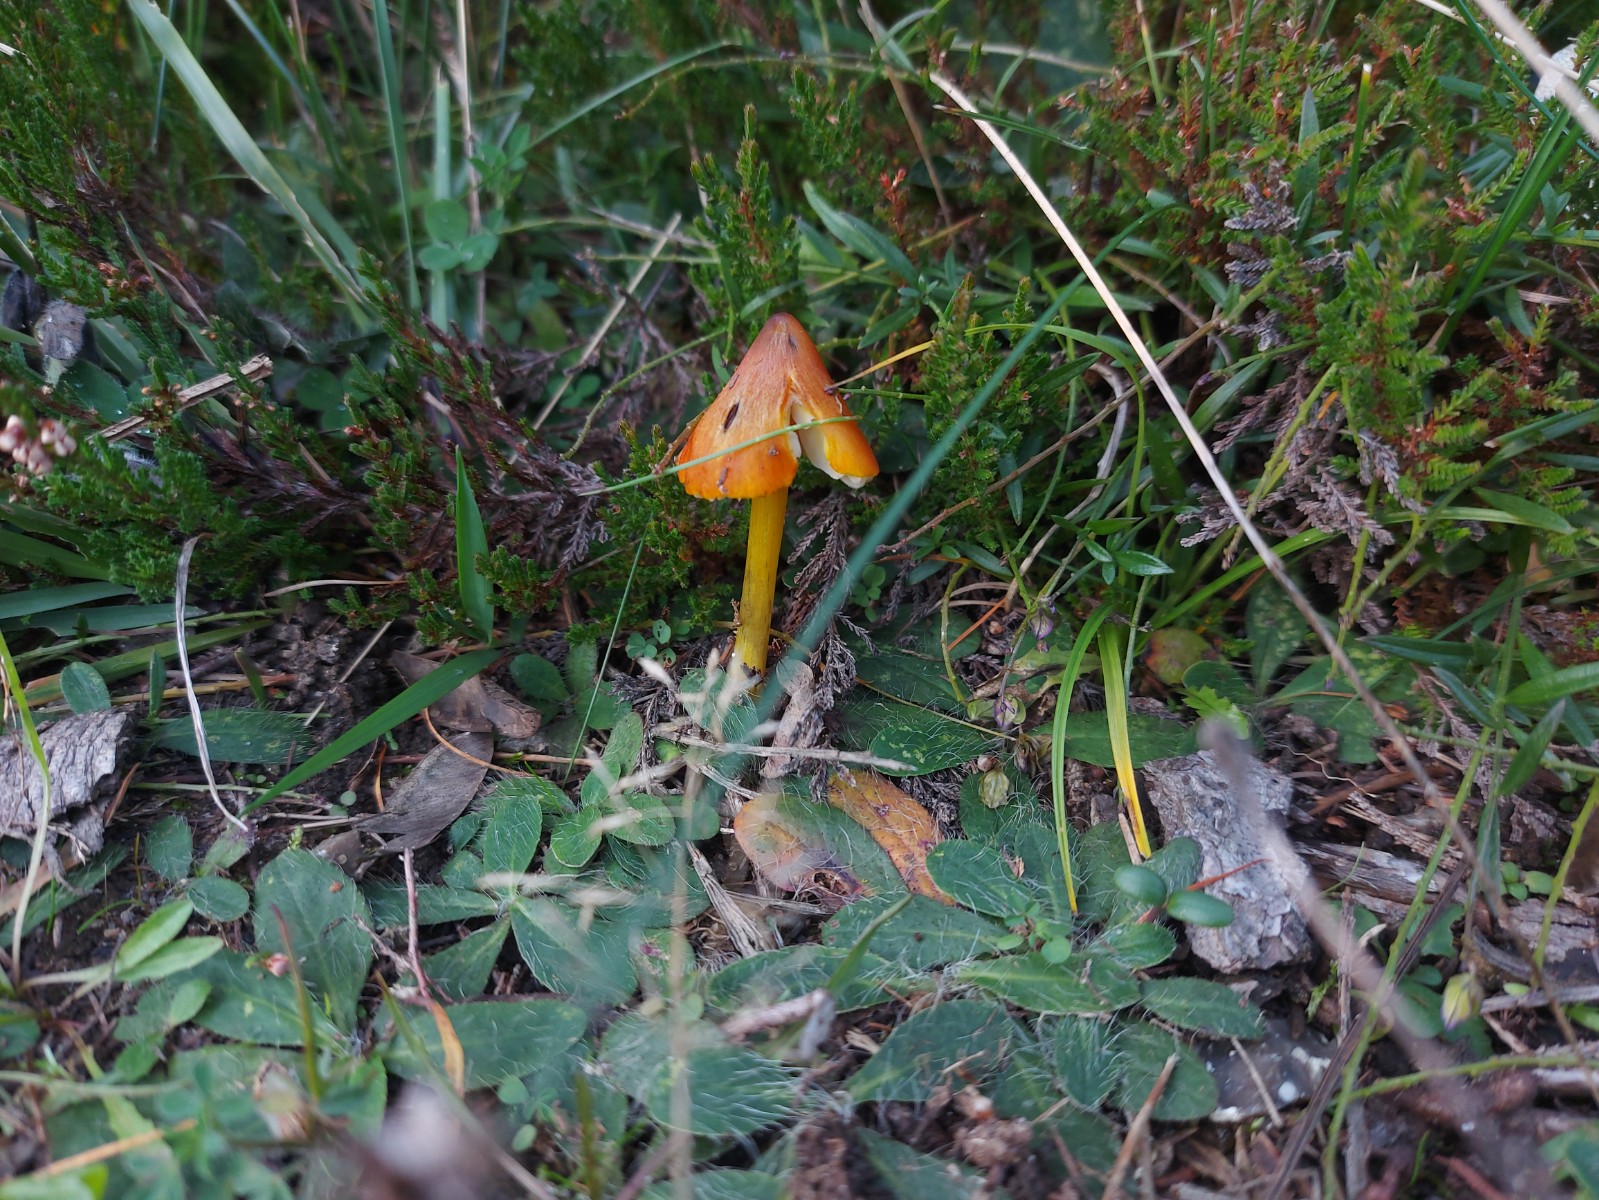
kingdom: Fungi
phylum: Basidiomycota
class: Agaricomycetes
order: Agaricales
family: Hygrophoraceae
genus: Hygrocybe
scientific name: Hygrocybe conica
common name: kegle-vokshat
